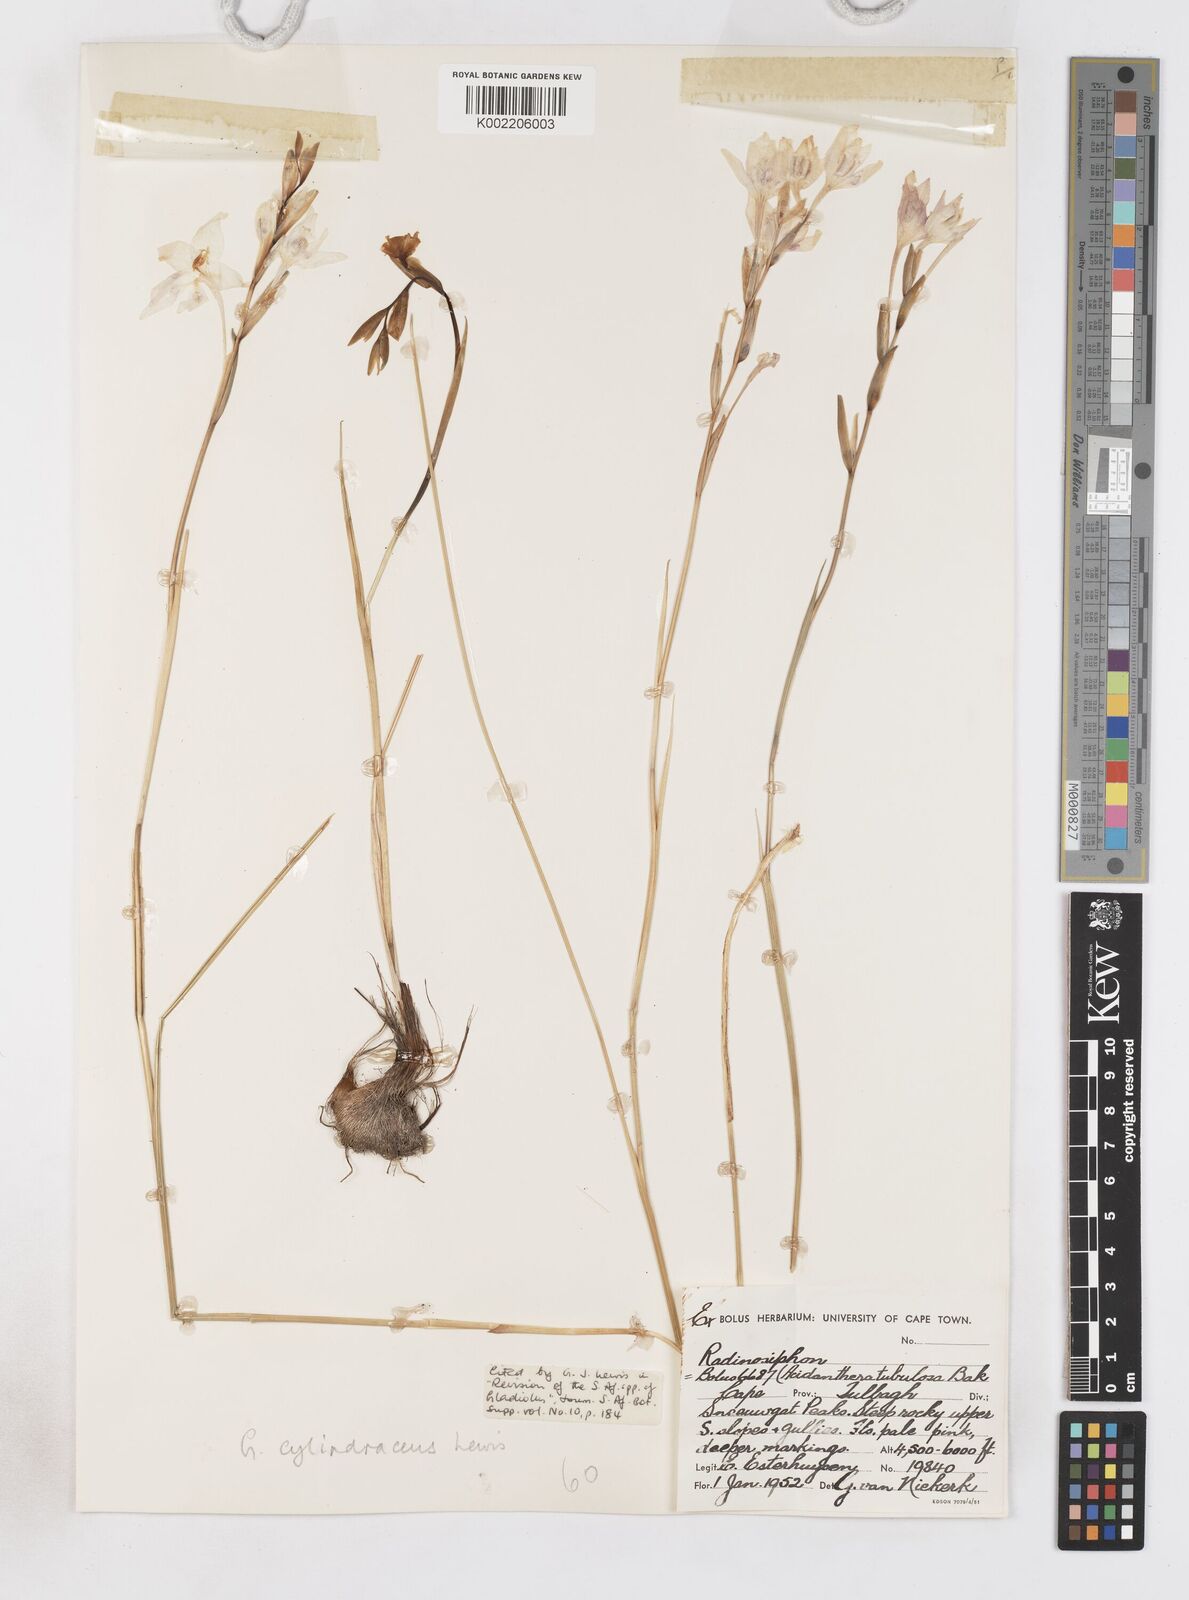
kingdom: Plantae
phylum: Tracheophyta
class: Liliopsida
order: Asparagales
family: Iridaceae
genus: Gladiolus
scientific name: Gladiolus cylindraceus
